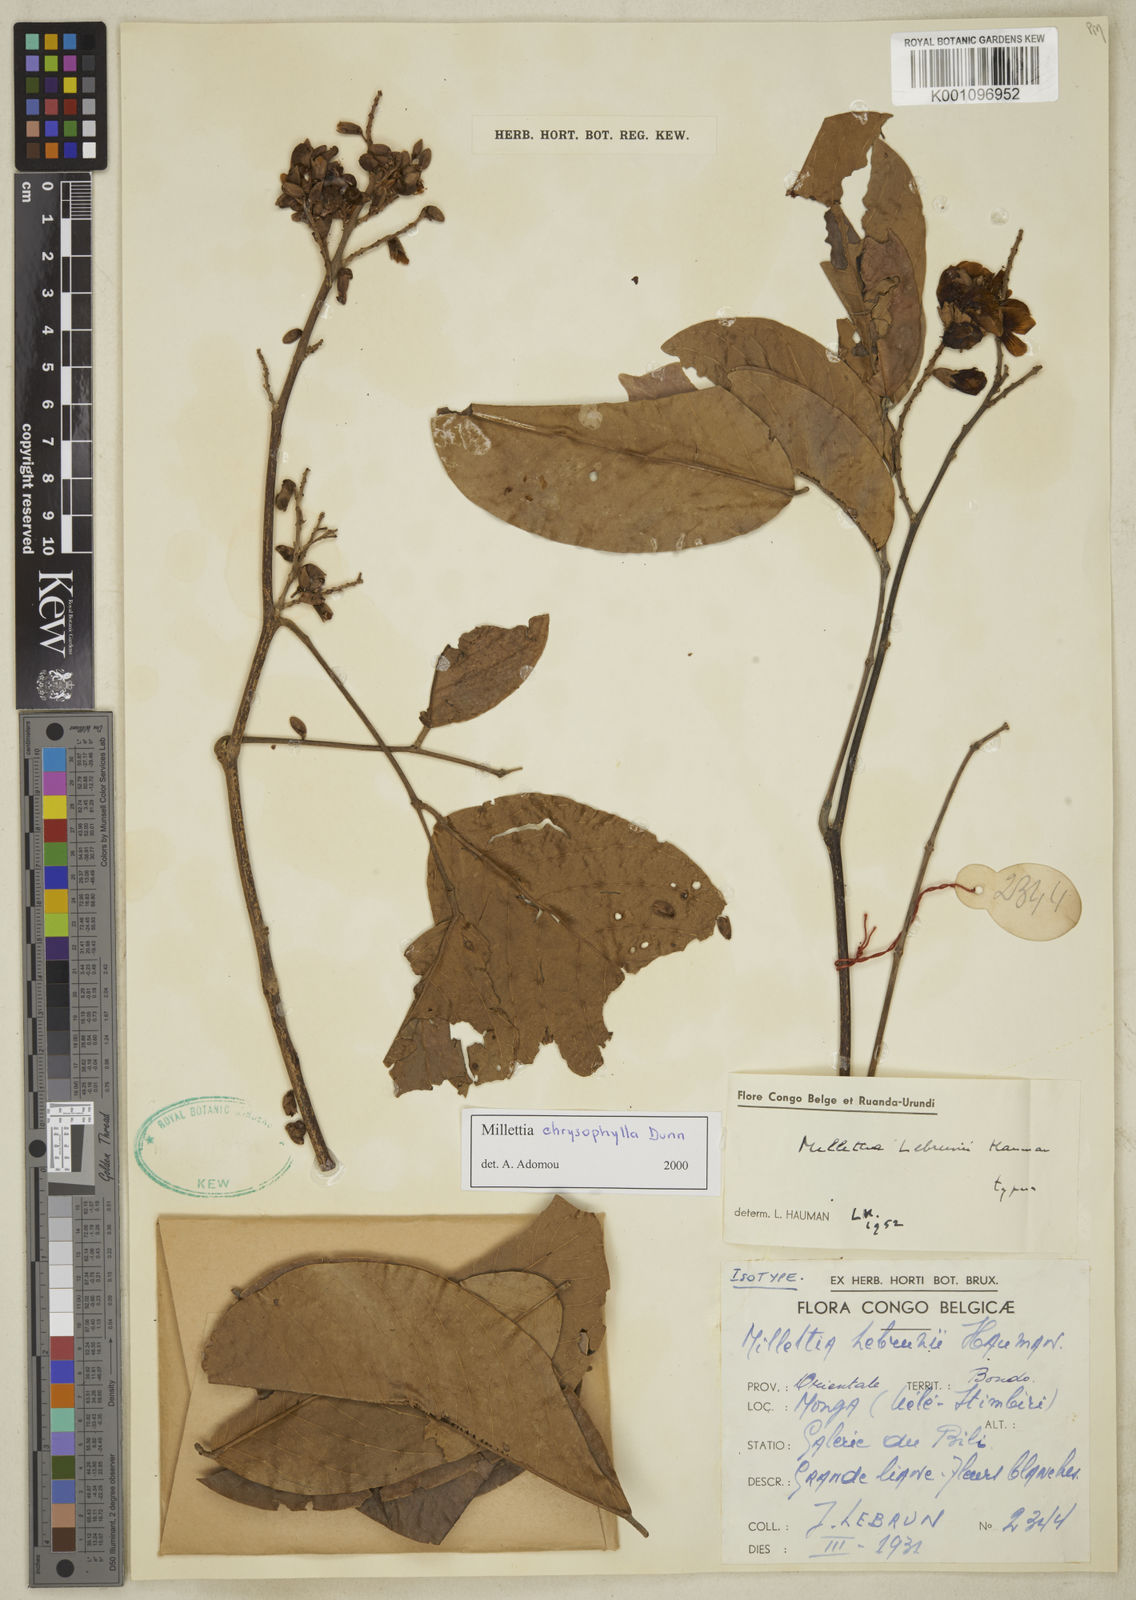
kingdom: Plantae
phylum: Tracheophyta
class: Magnoliopsida
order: Fabales
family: Fabaceae
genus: Millettia
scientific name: Millettia lebrunii
